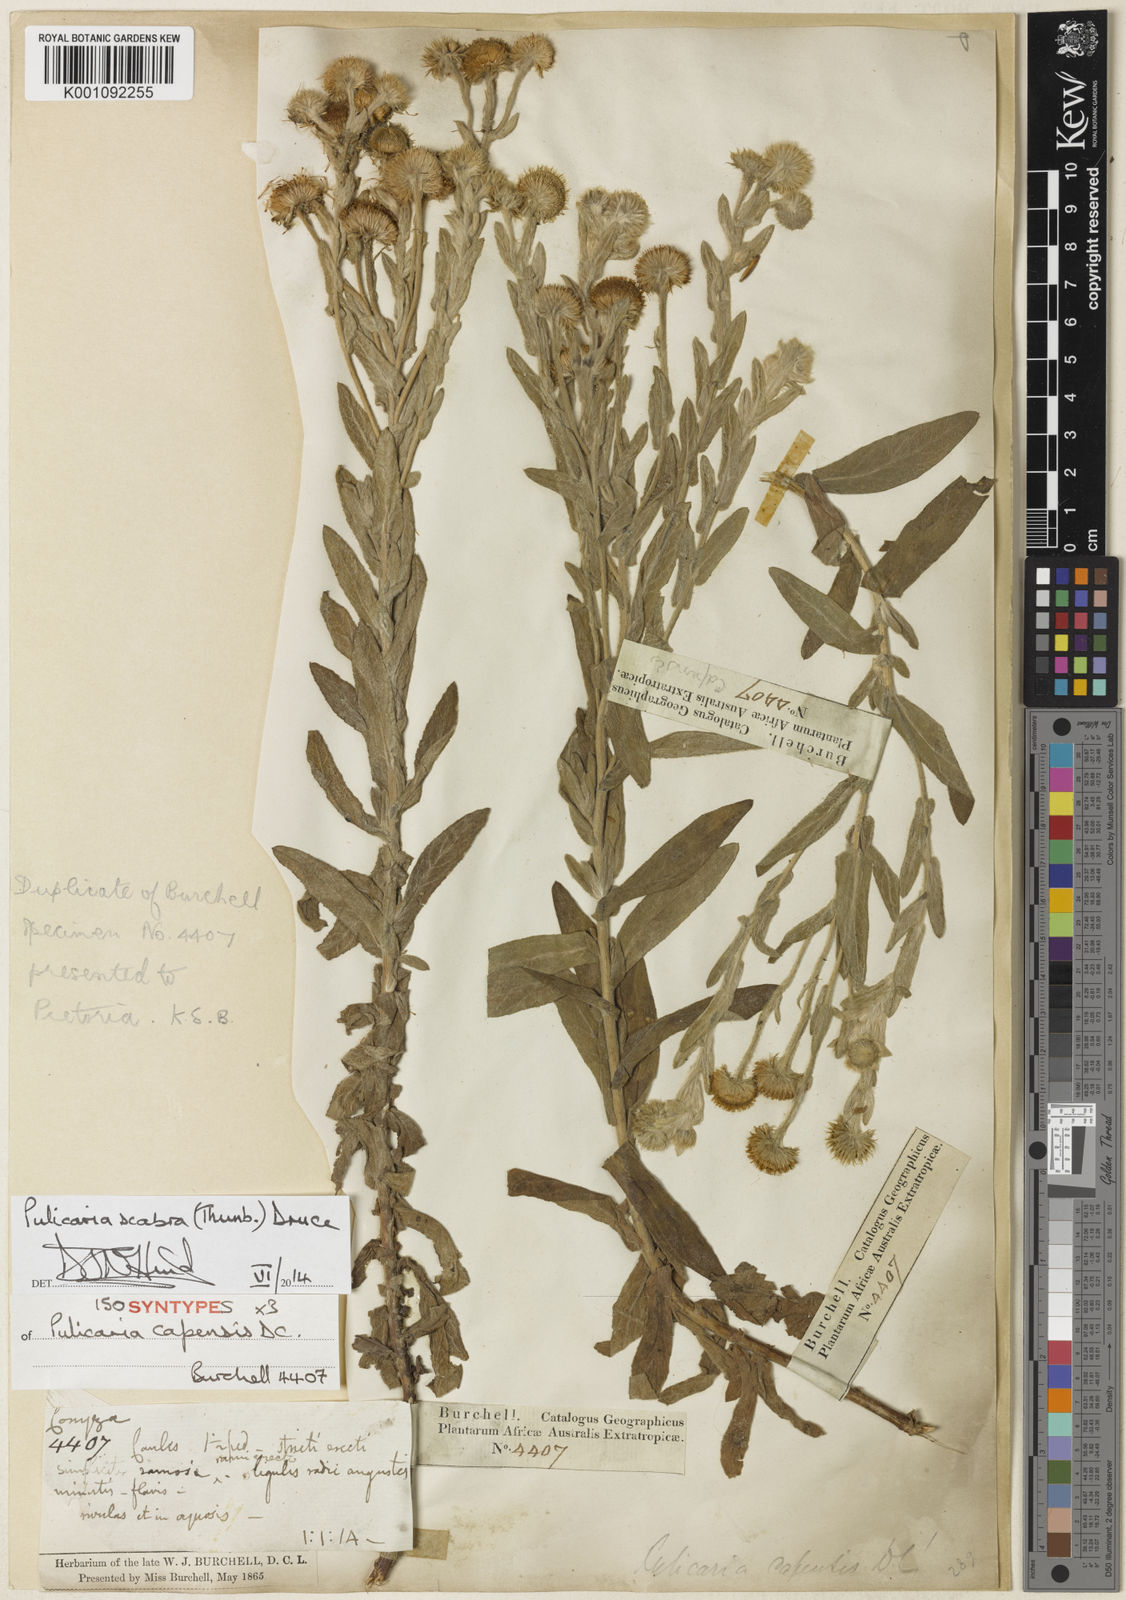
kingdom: Plantae
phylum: Tracheophyta
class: Magnoliopsida
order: Asterales
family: Asteraceae
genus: Pulicaria
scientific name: Pulicaria scabra
